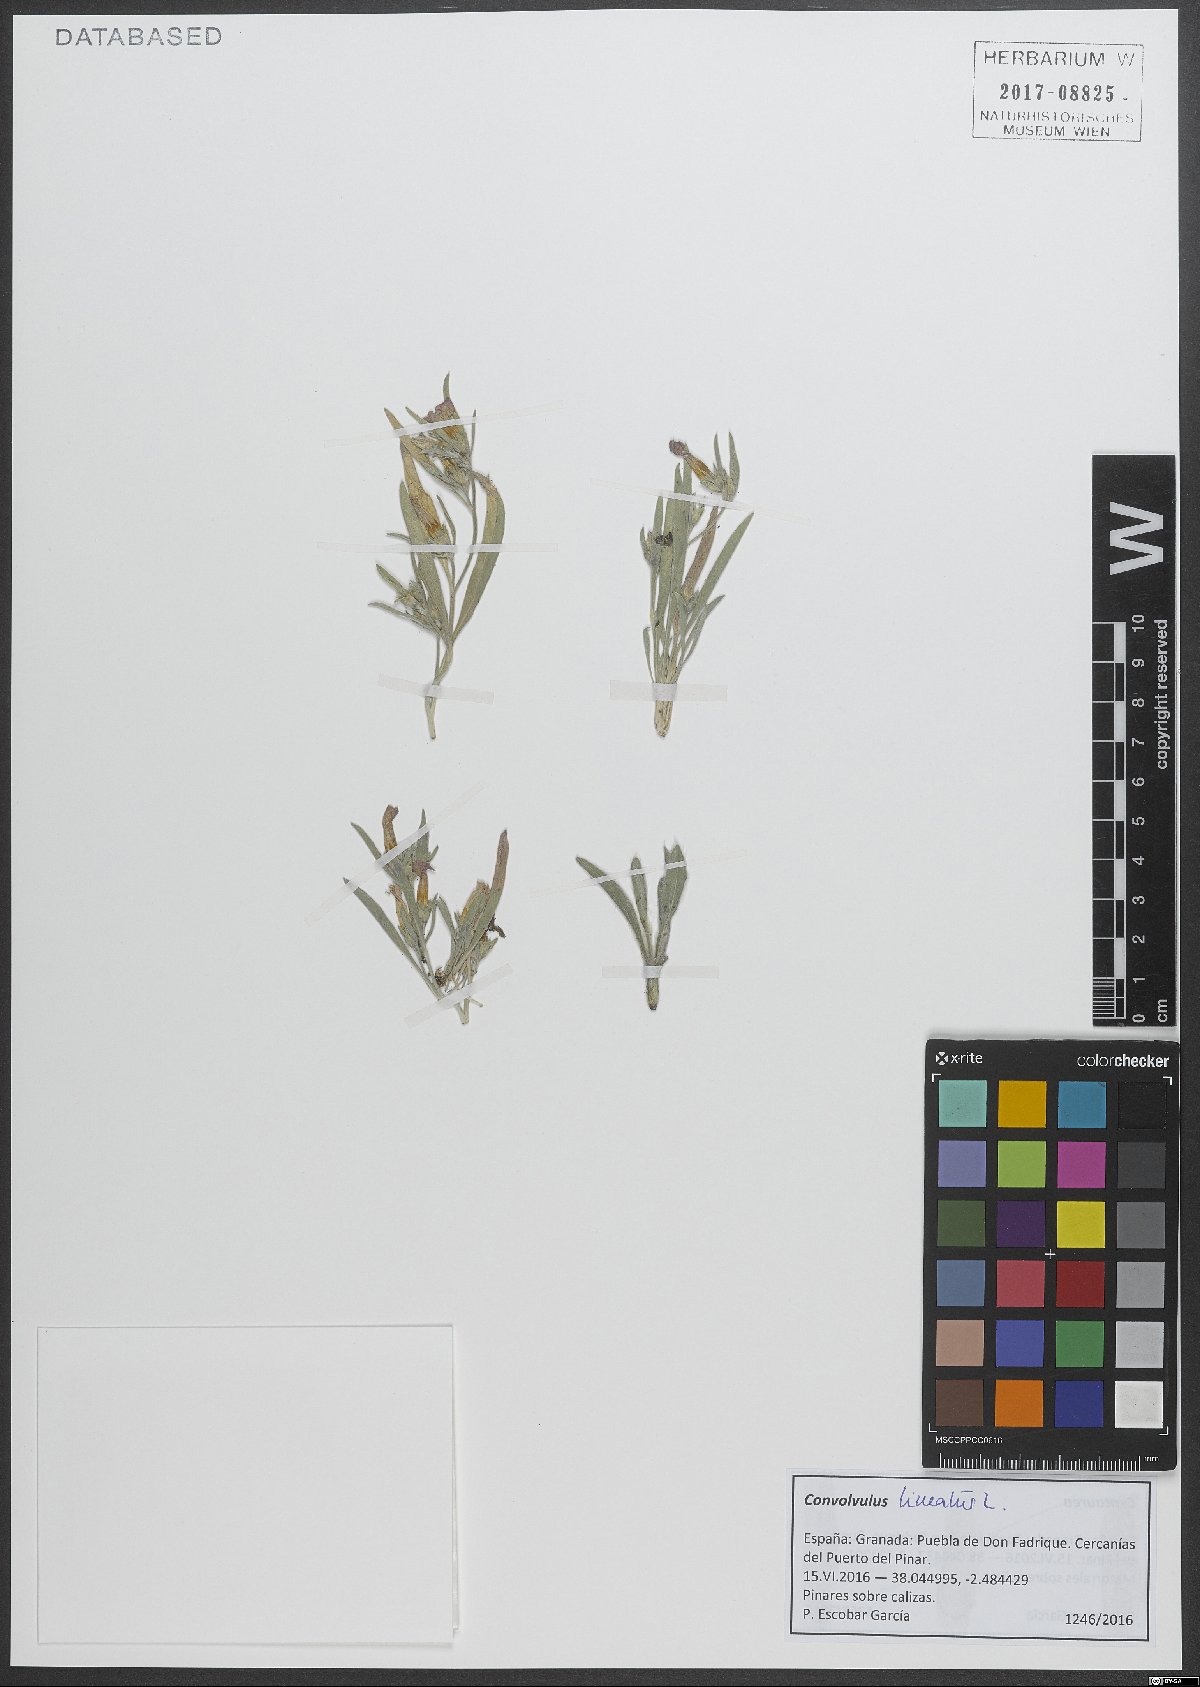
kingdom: Plantae
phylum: Tracheophyta
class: Magnoliopsida
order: Solanales
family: Convolvulaceae
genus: Convolvulus
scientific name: Convolvulus lineatus
